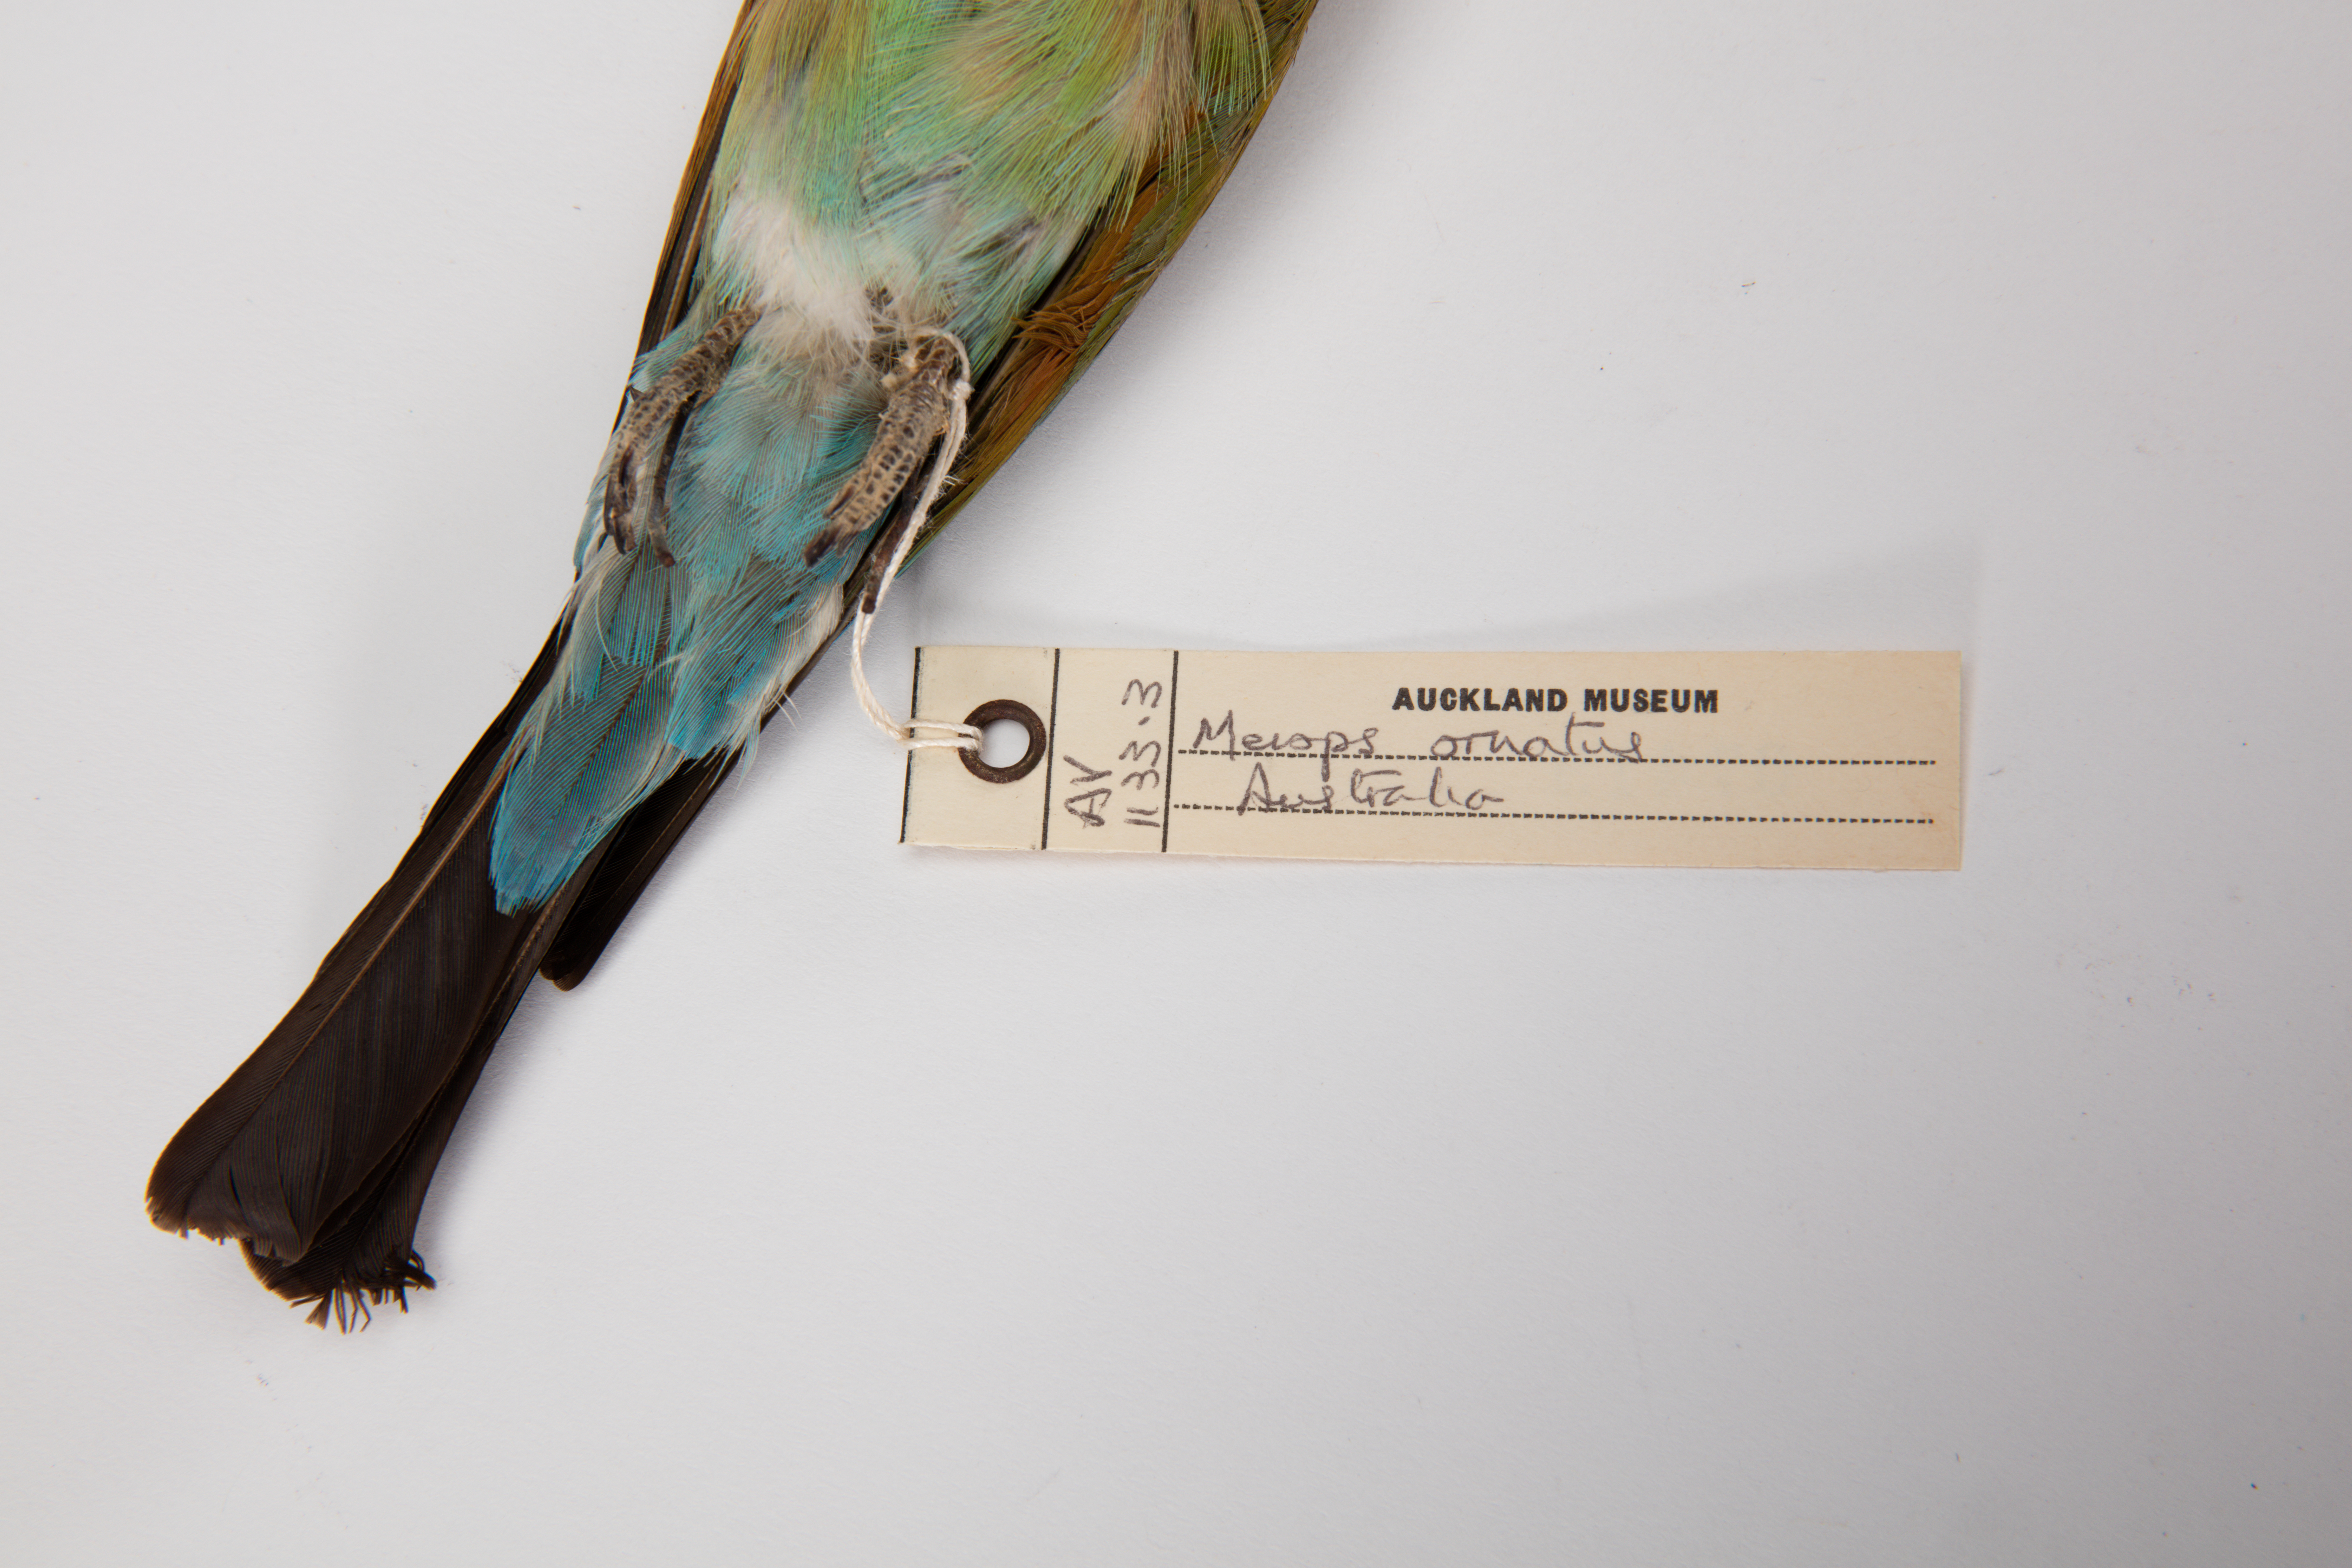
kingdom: Animalia
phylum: Chordata
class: Aves
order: Coraciiformes
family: Meropidae
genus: Merops
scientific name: Merops ornatus
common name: Rainbow bee-eater
